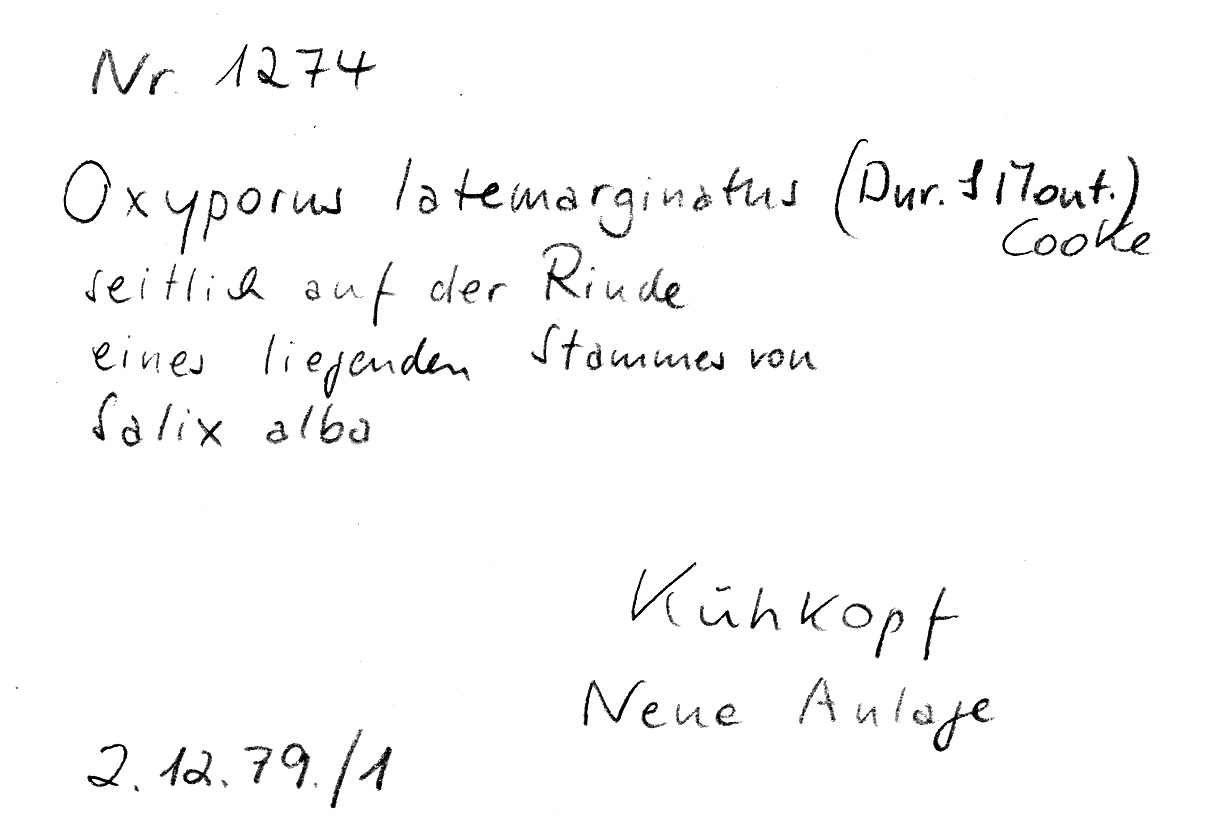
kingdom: Fungi
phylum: Basidiomycota
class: Agaricomycetes
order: Polyporales
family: Irpicaceae
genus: Irpex
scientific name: Irpex latemarginatus
